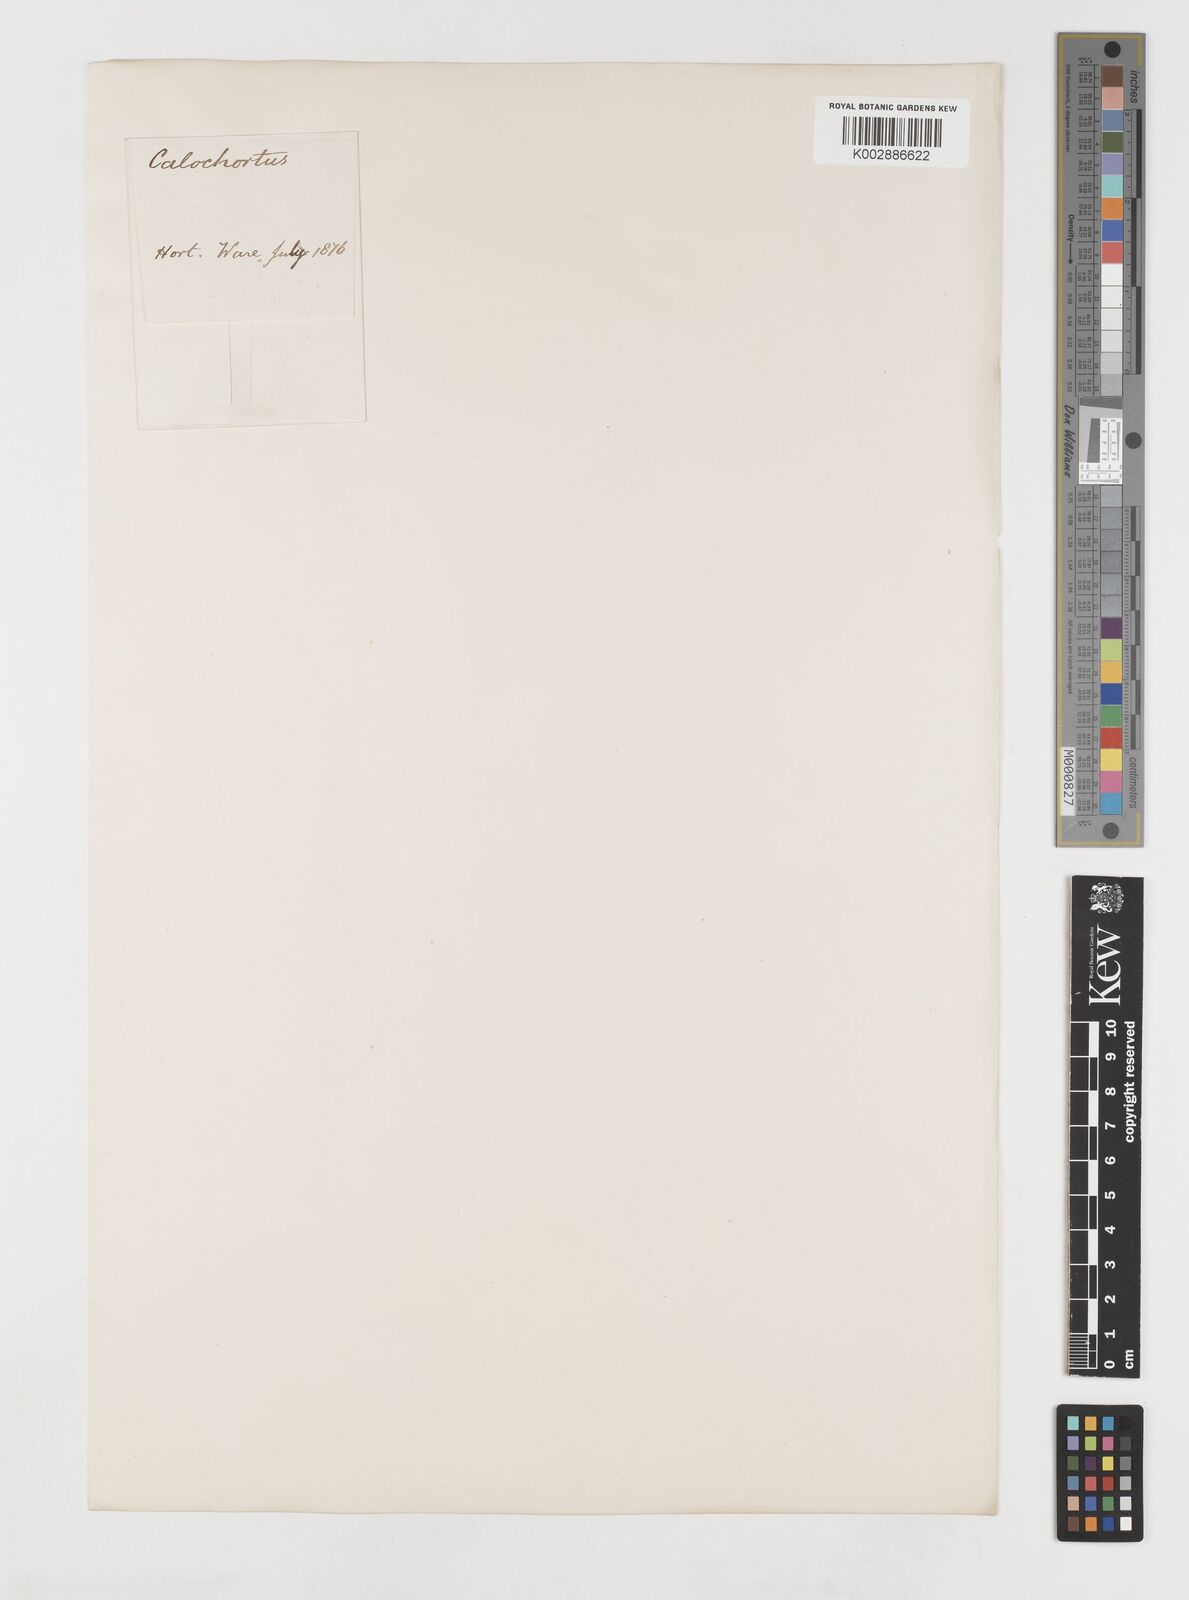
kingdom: Plantae
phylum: Tracheophyta
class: Liliopsida
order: Liliales
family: Liliaceae
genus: Calochortus
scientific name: Calochortus leichtlinii
